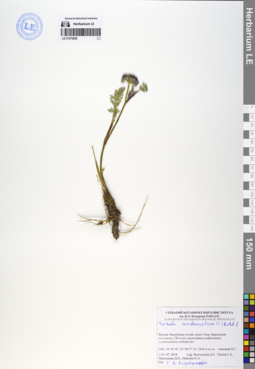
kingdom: Plantae
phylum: Tracheophyta
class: Magnoliopsida
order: Apiales
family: Apiaceae
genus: Seseli
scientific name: Seseli condensatum
